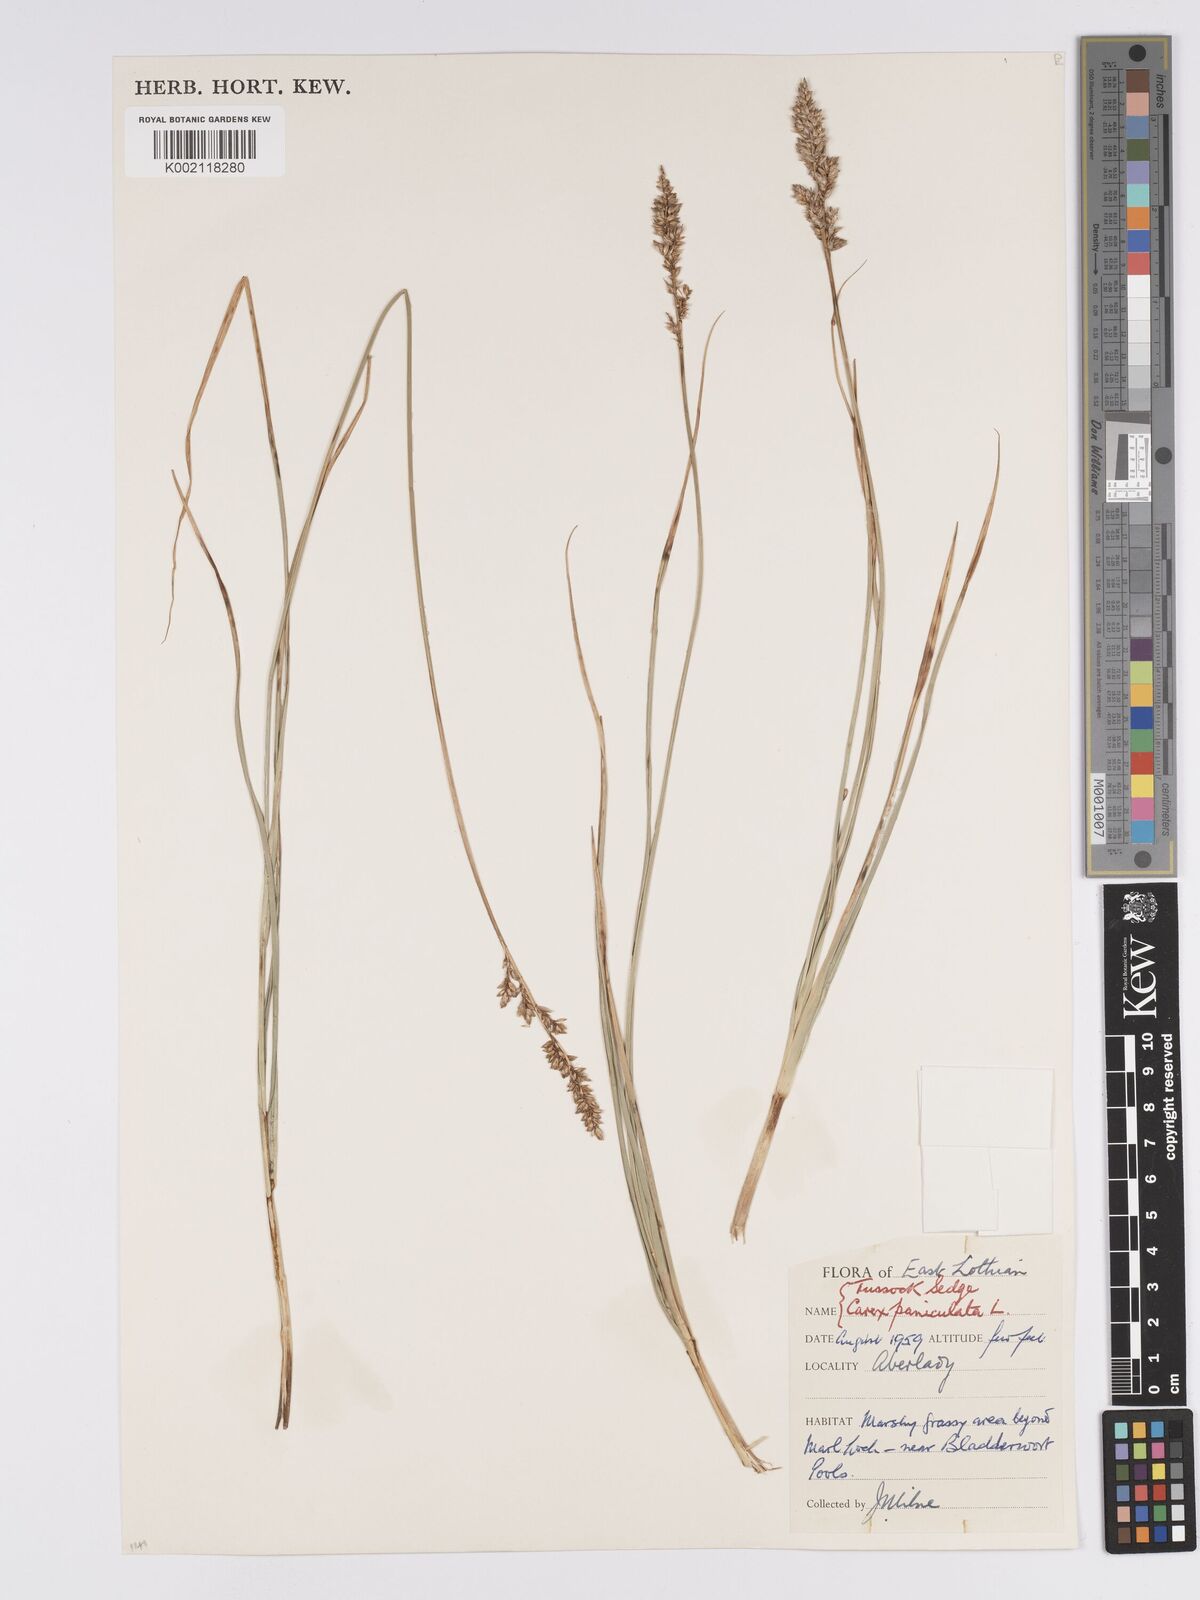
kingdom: Plantae
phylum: Tracheophyta
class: Liliopsida
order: Poales
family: Cyperaceae
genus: Carex
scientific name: Carex paniculata
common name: Greater tussock-sedge
